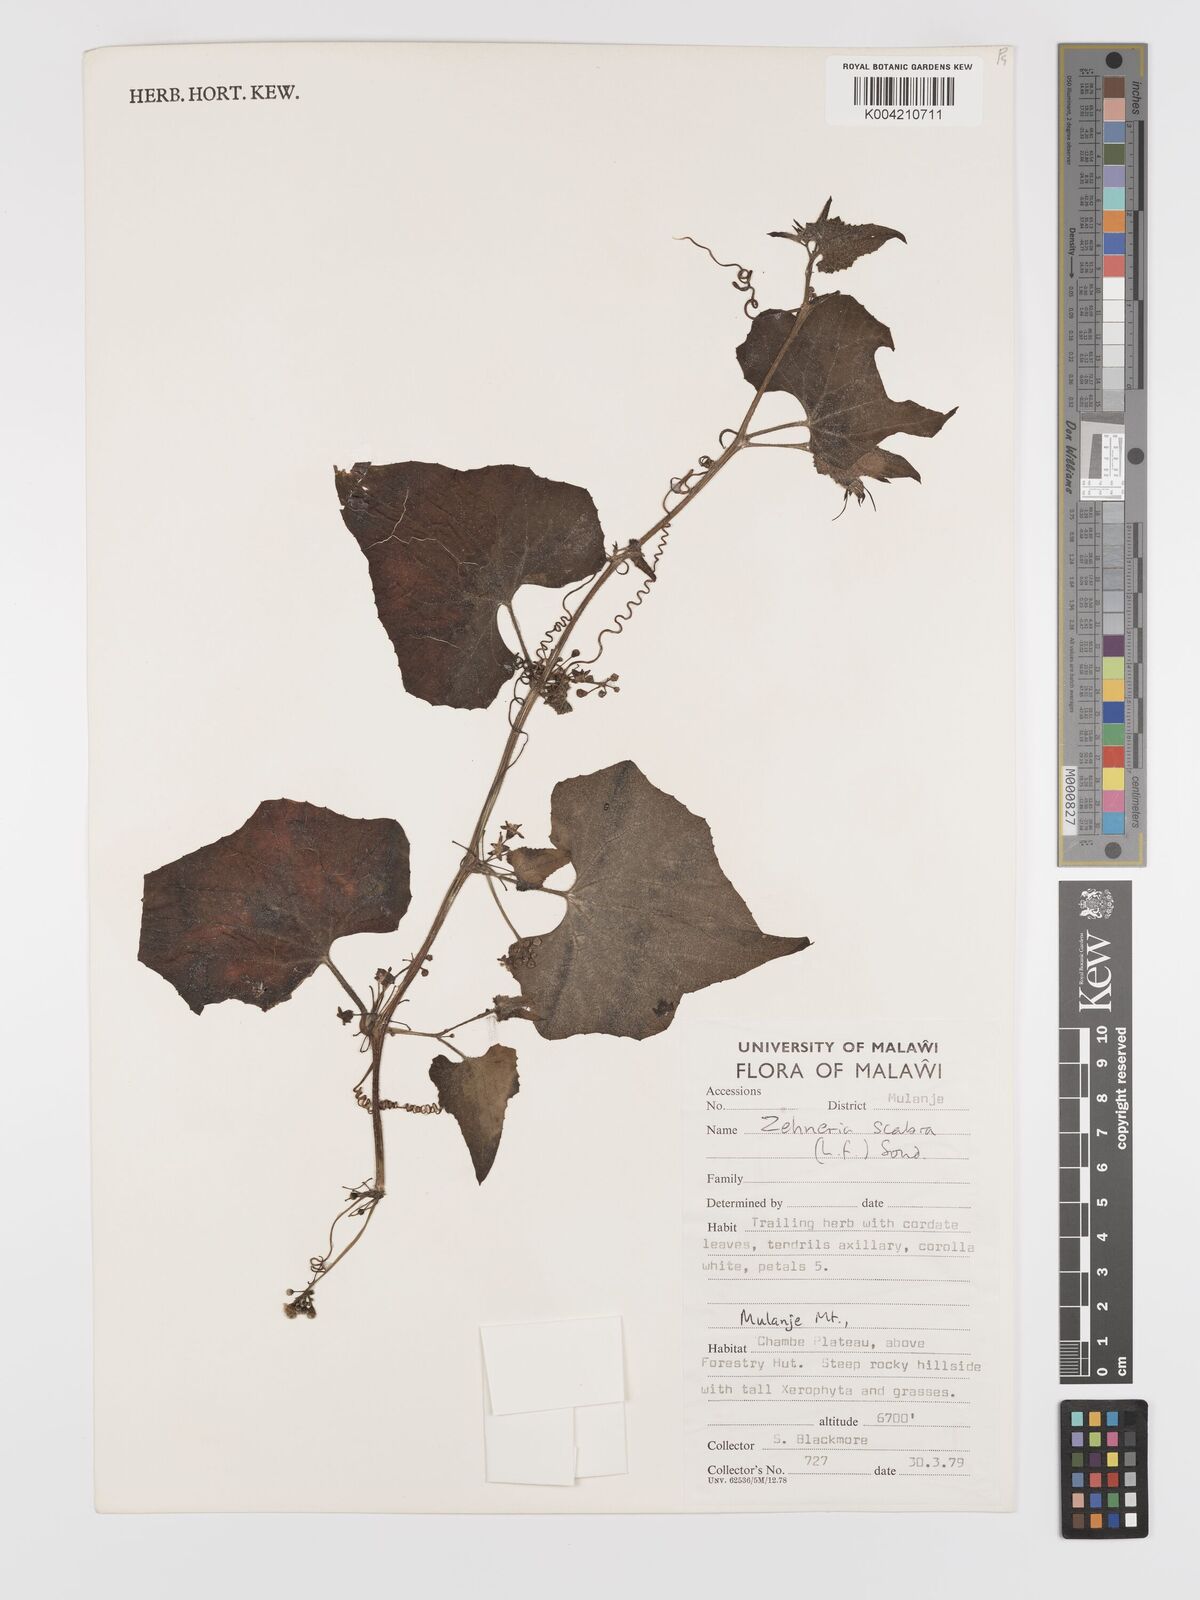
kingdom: Plantae
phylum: Tracheophyta
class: Magnoliopsida
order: Cucurbitales
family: Cucurbitaceae
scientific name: Cucurbitaceae
